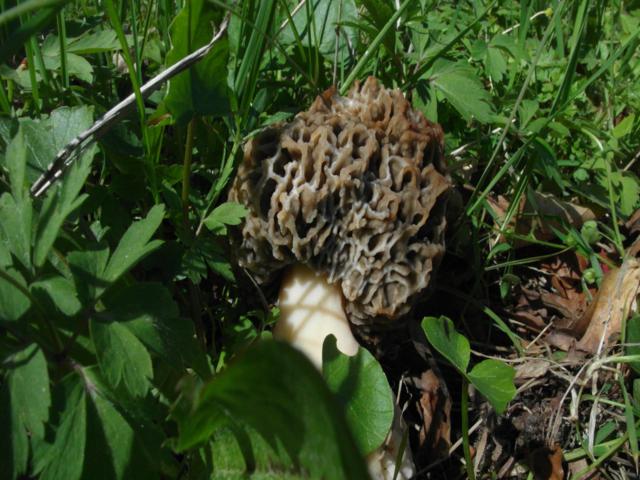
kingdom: Fungi
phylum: Ascomycota
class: Pezizomycetes
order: Pezizales
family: Morchellaceae
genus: Morchella
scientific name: Morchella esculenta
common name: spiselig morkel
